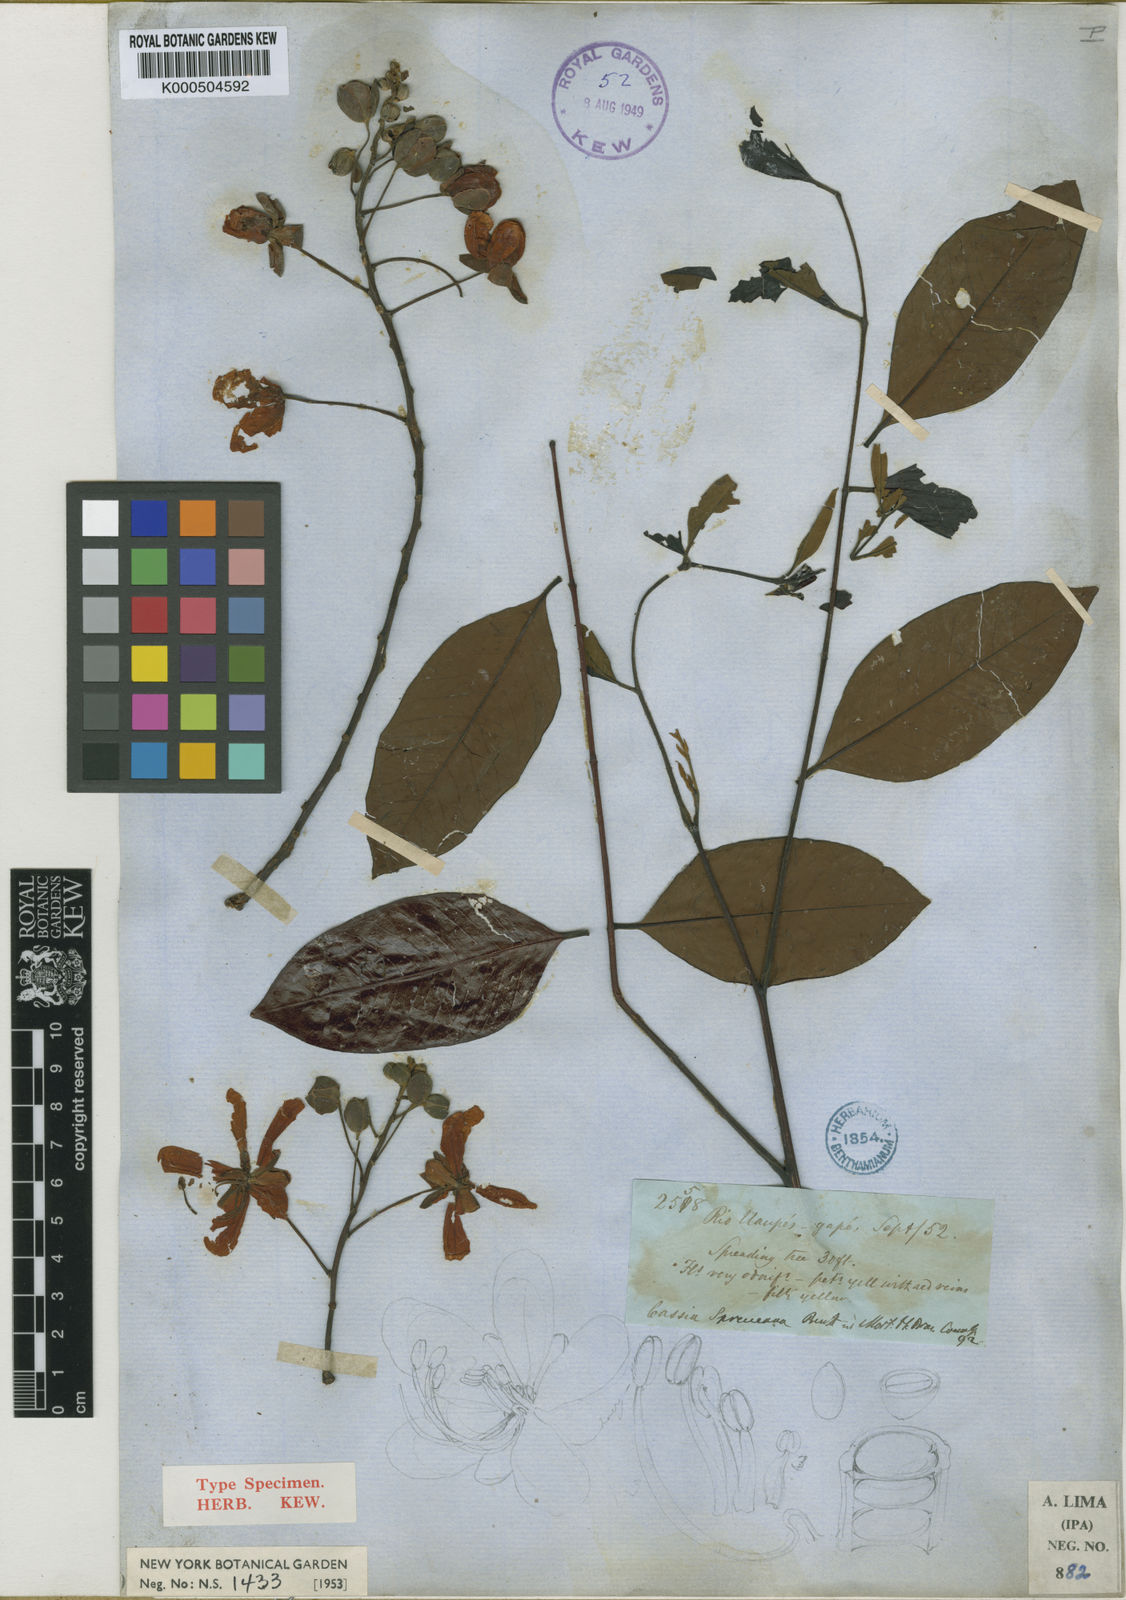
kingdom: Plantae
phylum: Tracheophyta
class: Magnoliopsida
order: Fabales
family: Fabaceae
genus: Cassia
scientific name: Cassia spruceana
